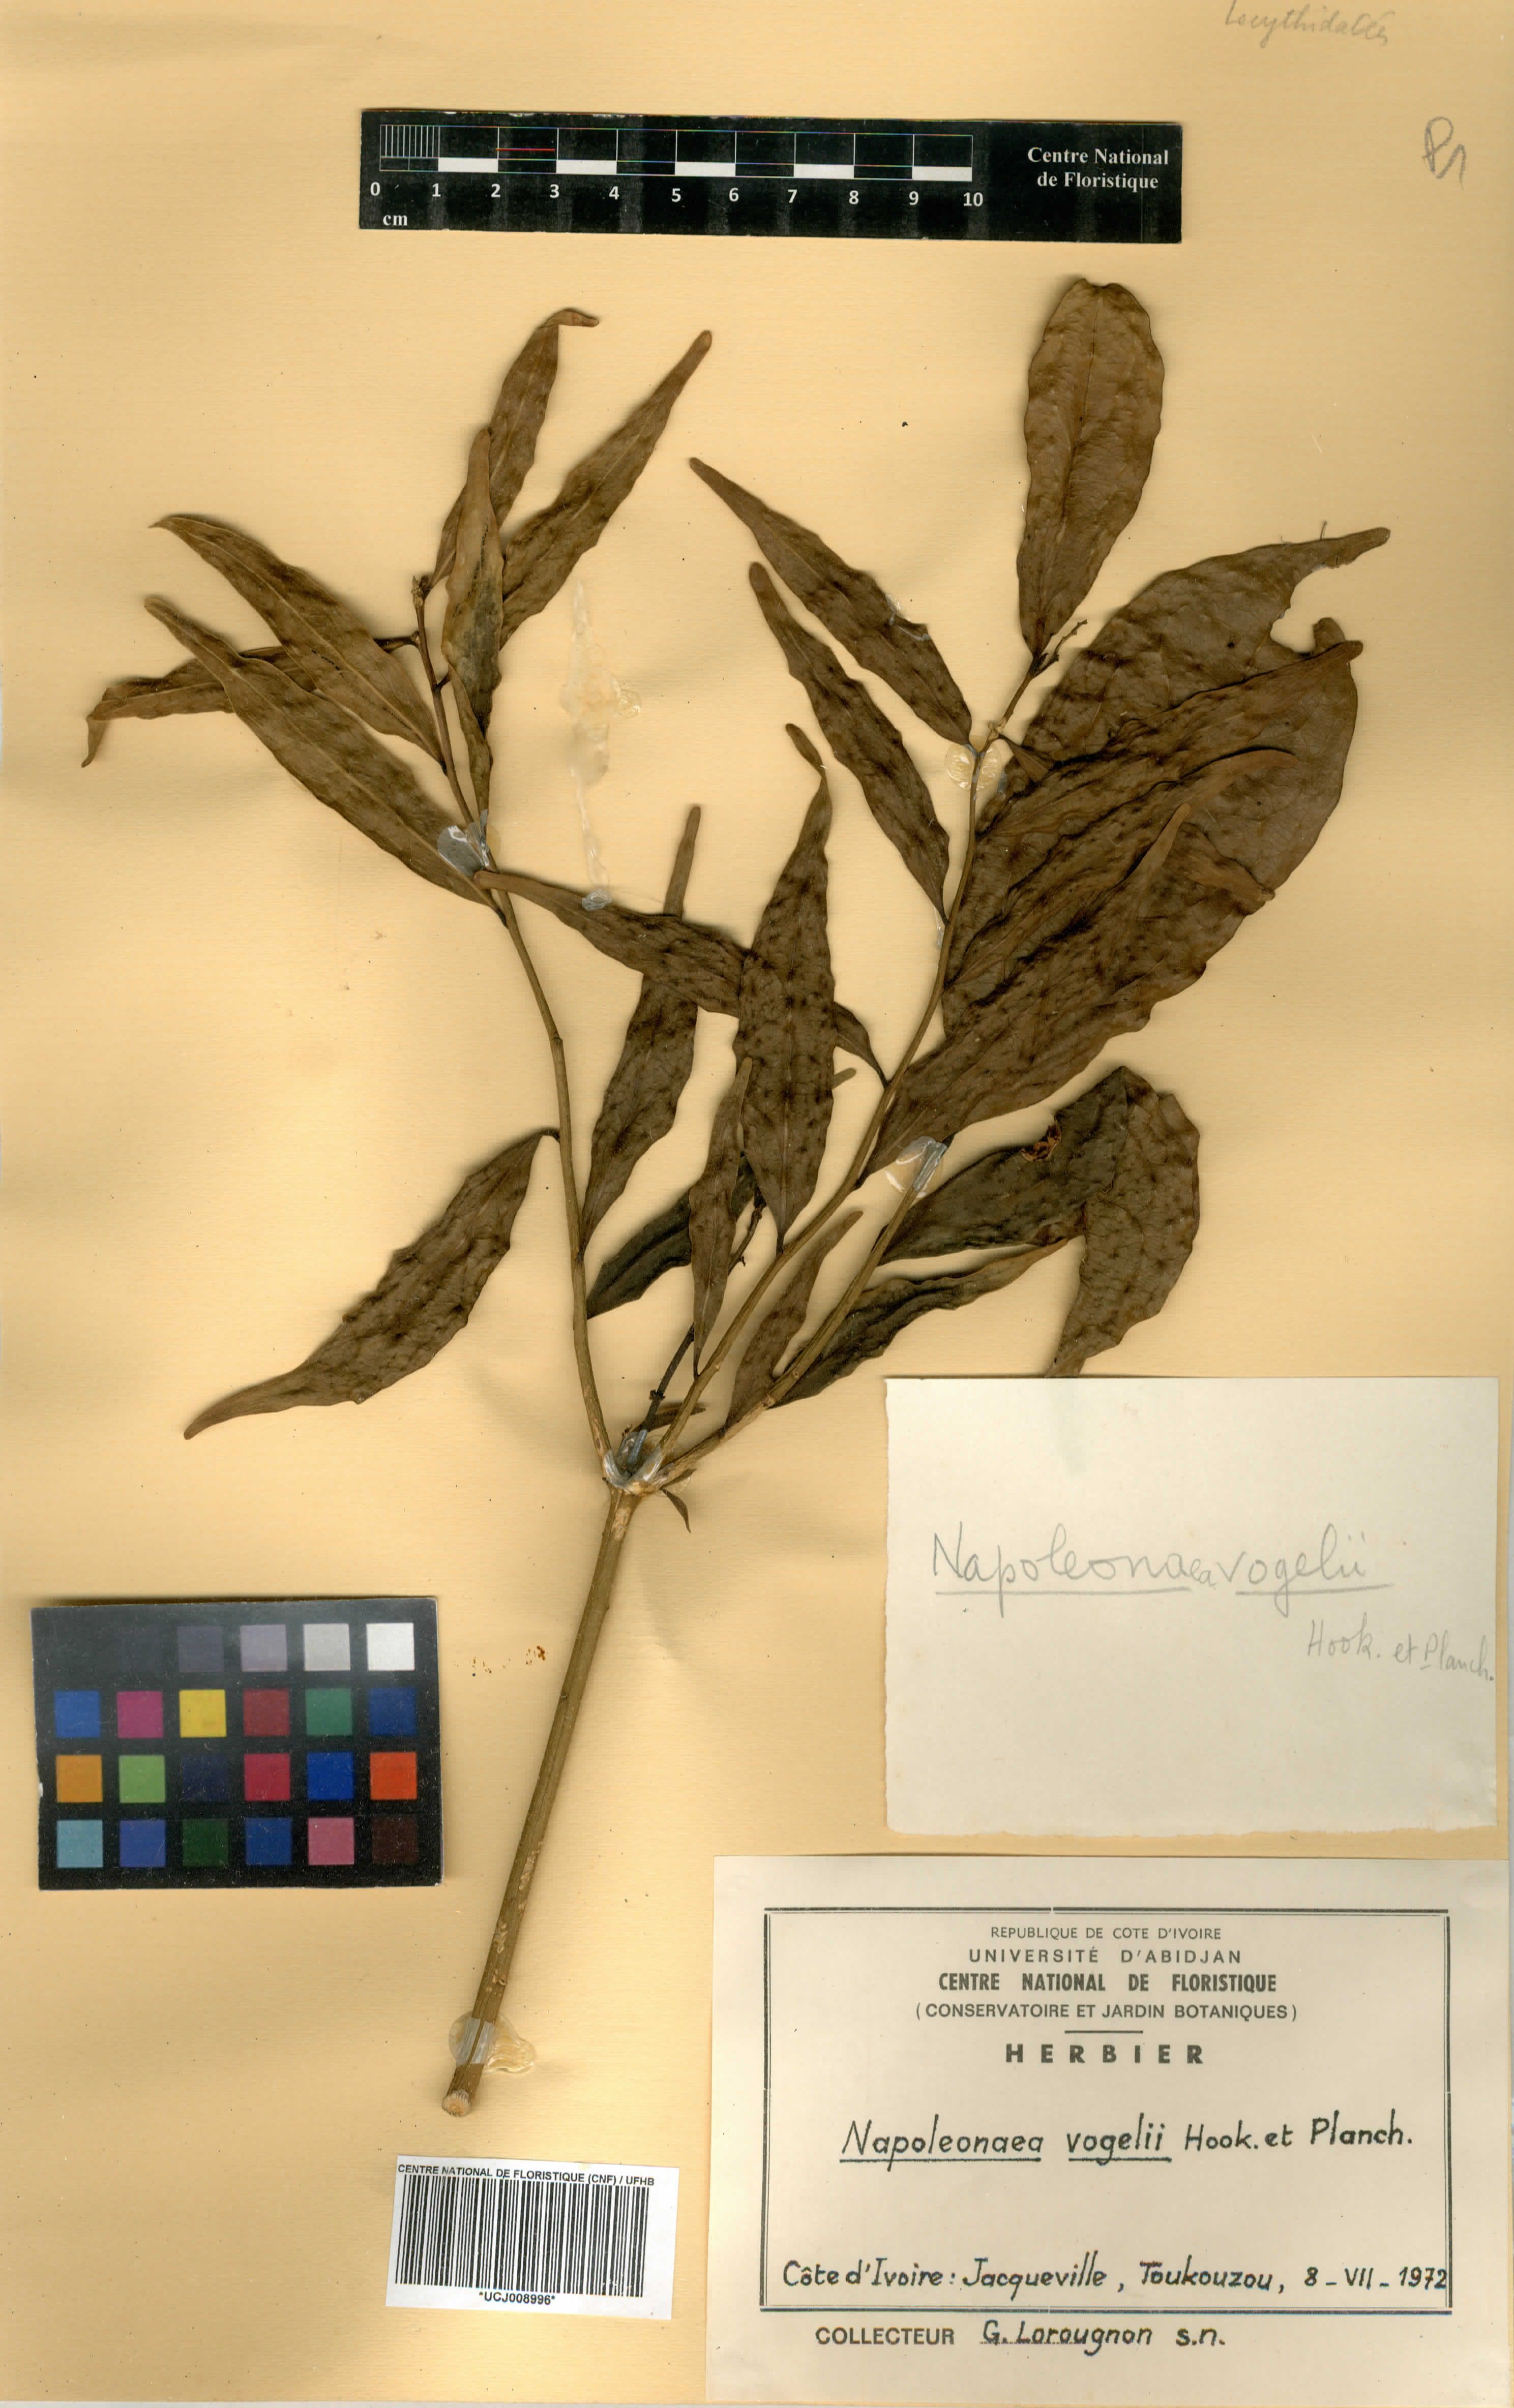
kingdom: Plantae
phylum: Tracheophyta
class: Magnoliopsida
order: Ericales
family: Lecythidaceae
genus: Napoleonaea
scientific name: Napoleonaea vogelii
